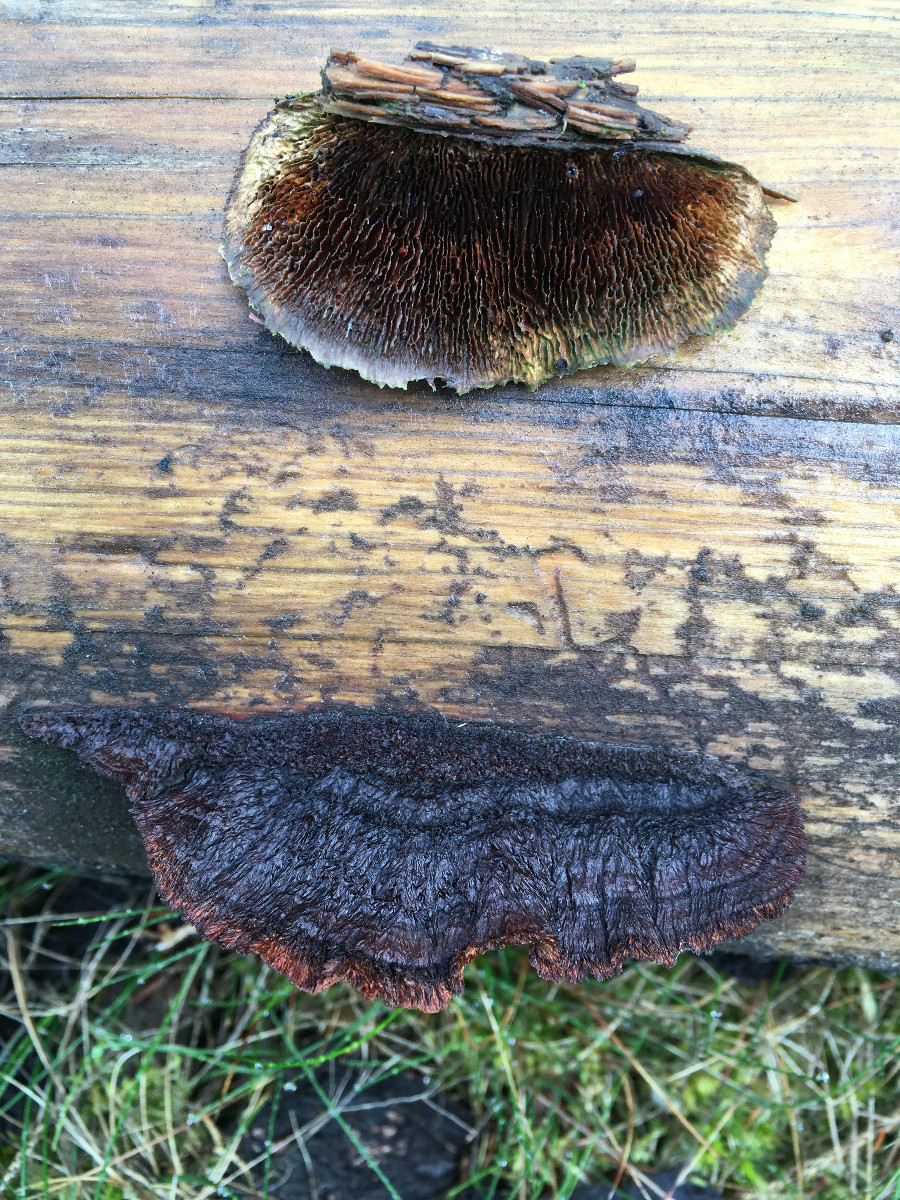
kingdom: Fungi
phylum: Basidiomycota
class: Agaricomycetes
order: Gloeophyllales
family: Gloeophyllaceae
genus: Gloeophyllum
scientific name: Gloeophyllum sepiarium
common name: fyrre-korkhat
